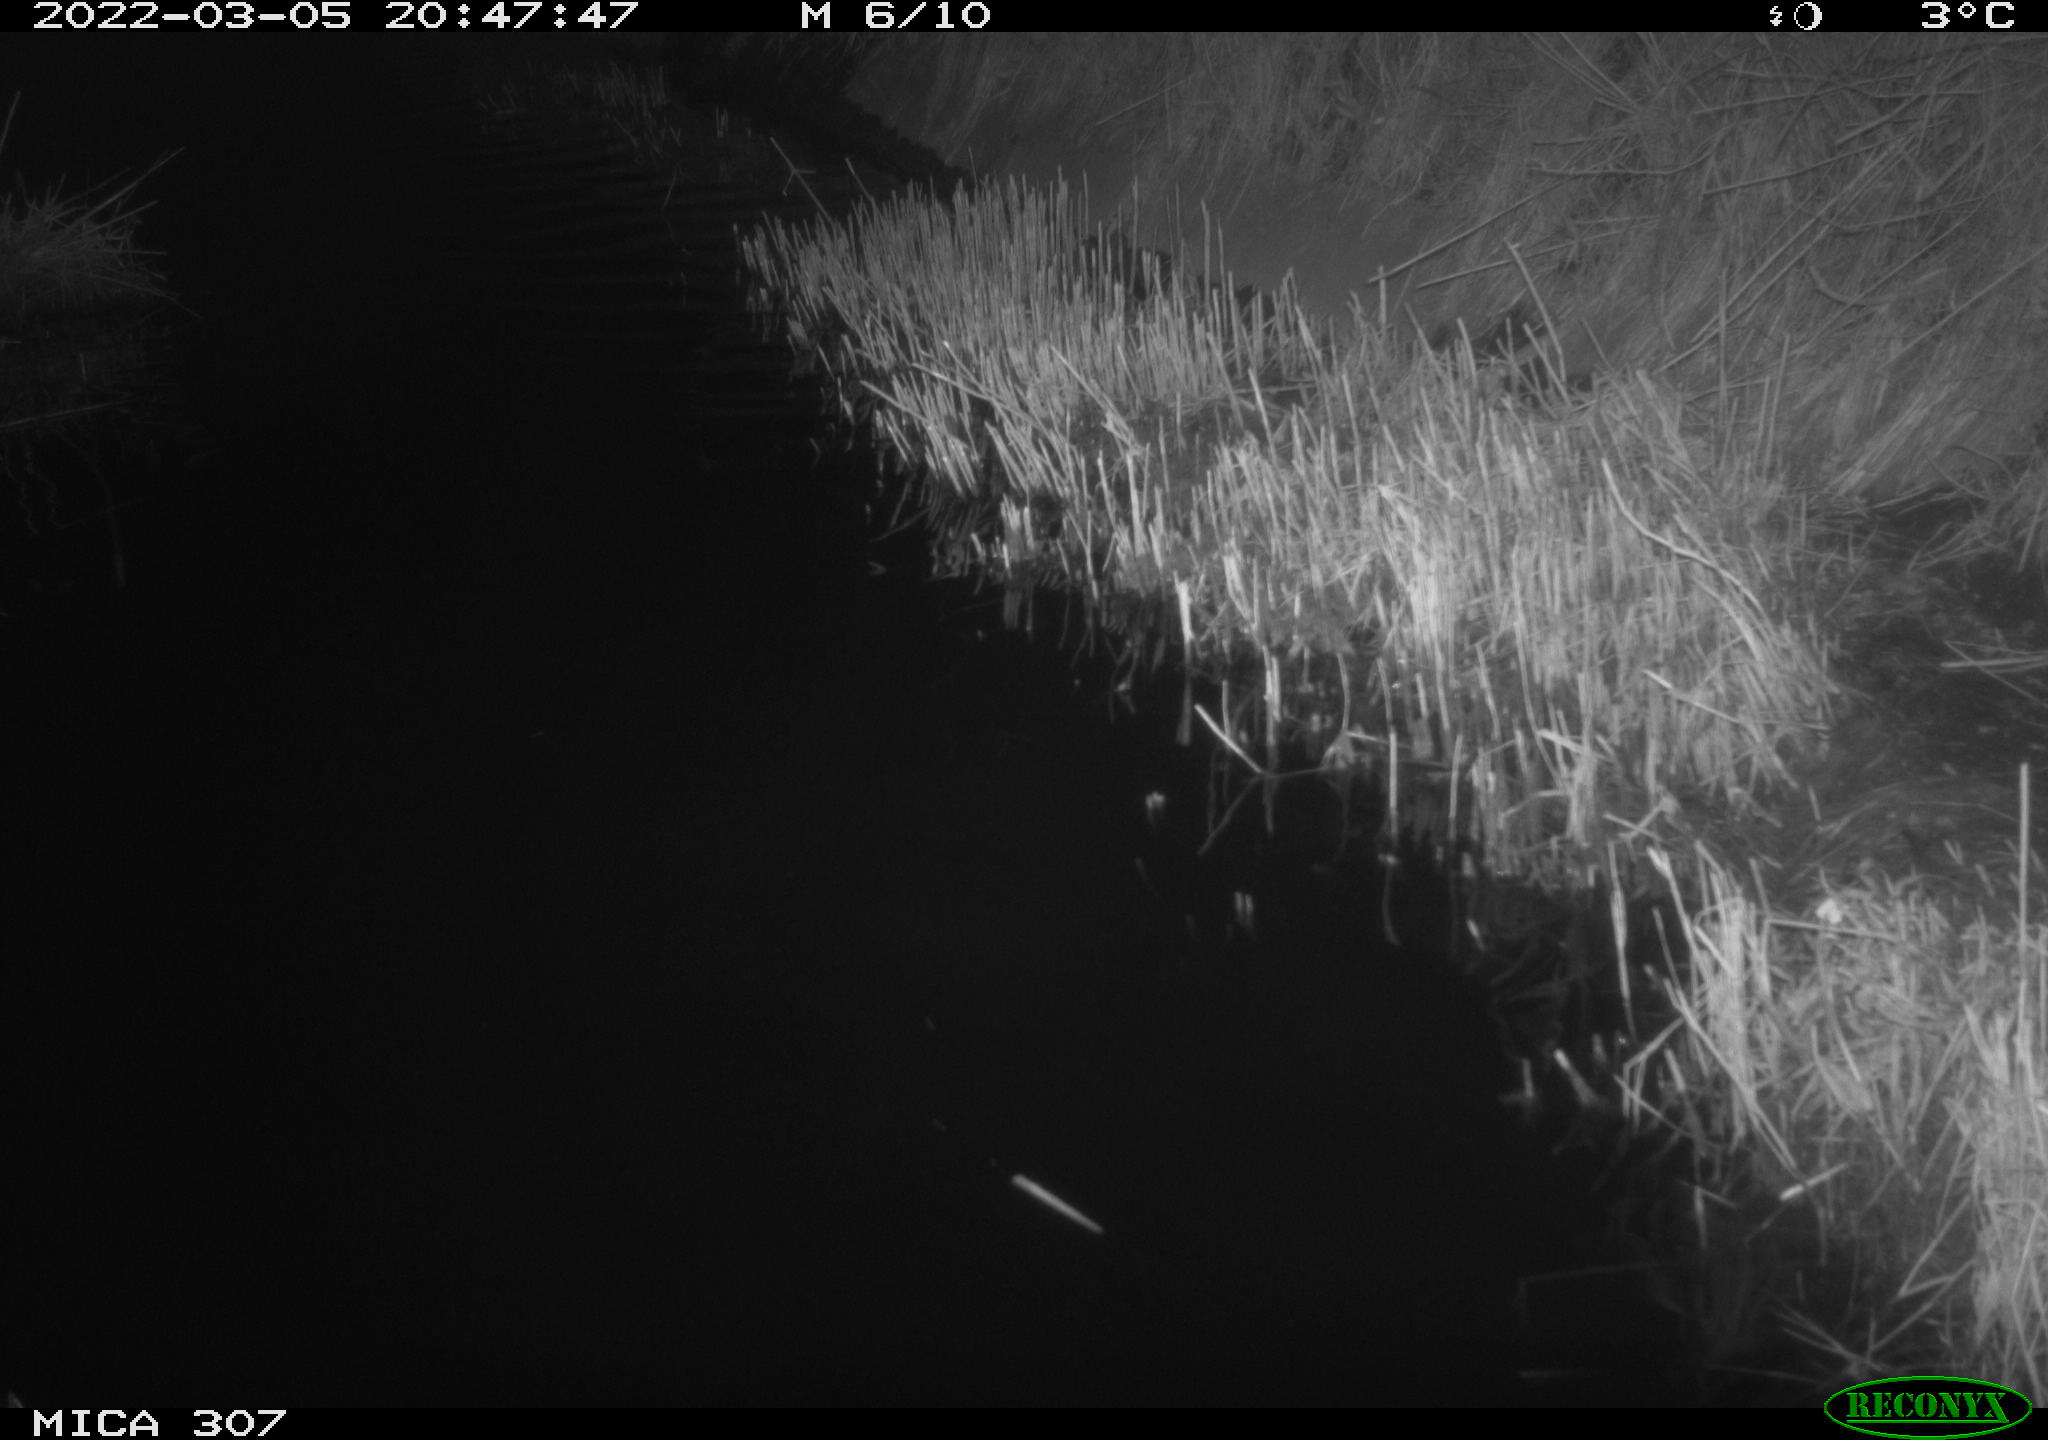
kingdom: Animalia
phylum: Chordata
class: Mammalia
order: Rodentia
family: Cricetidae
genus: Ondatra
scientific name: Ondatra zibethicus
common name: Muskrat
